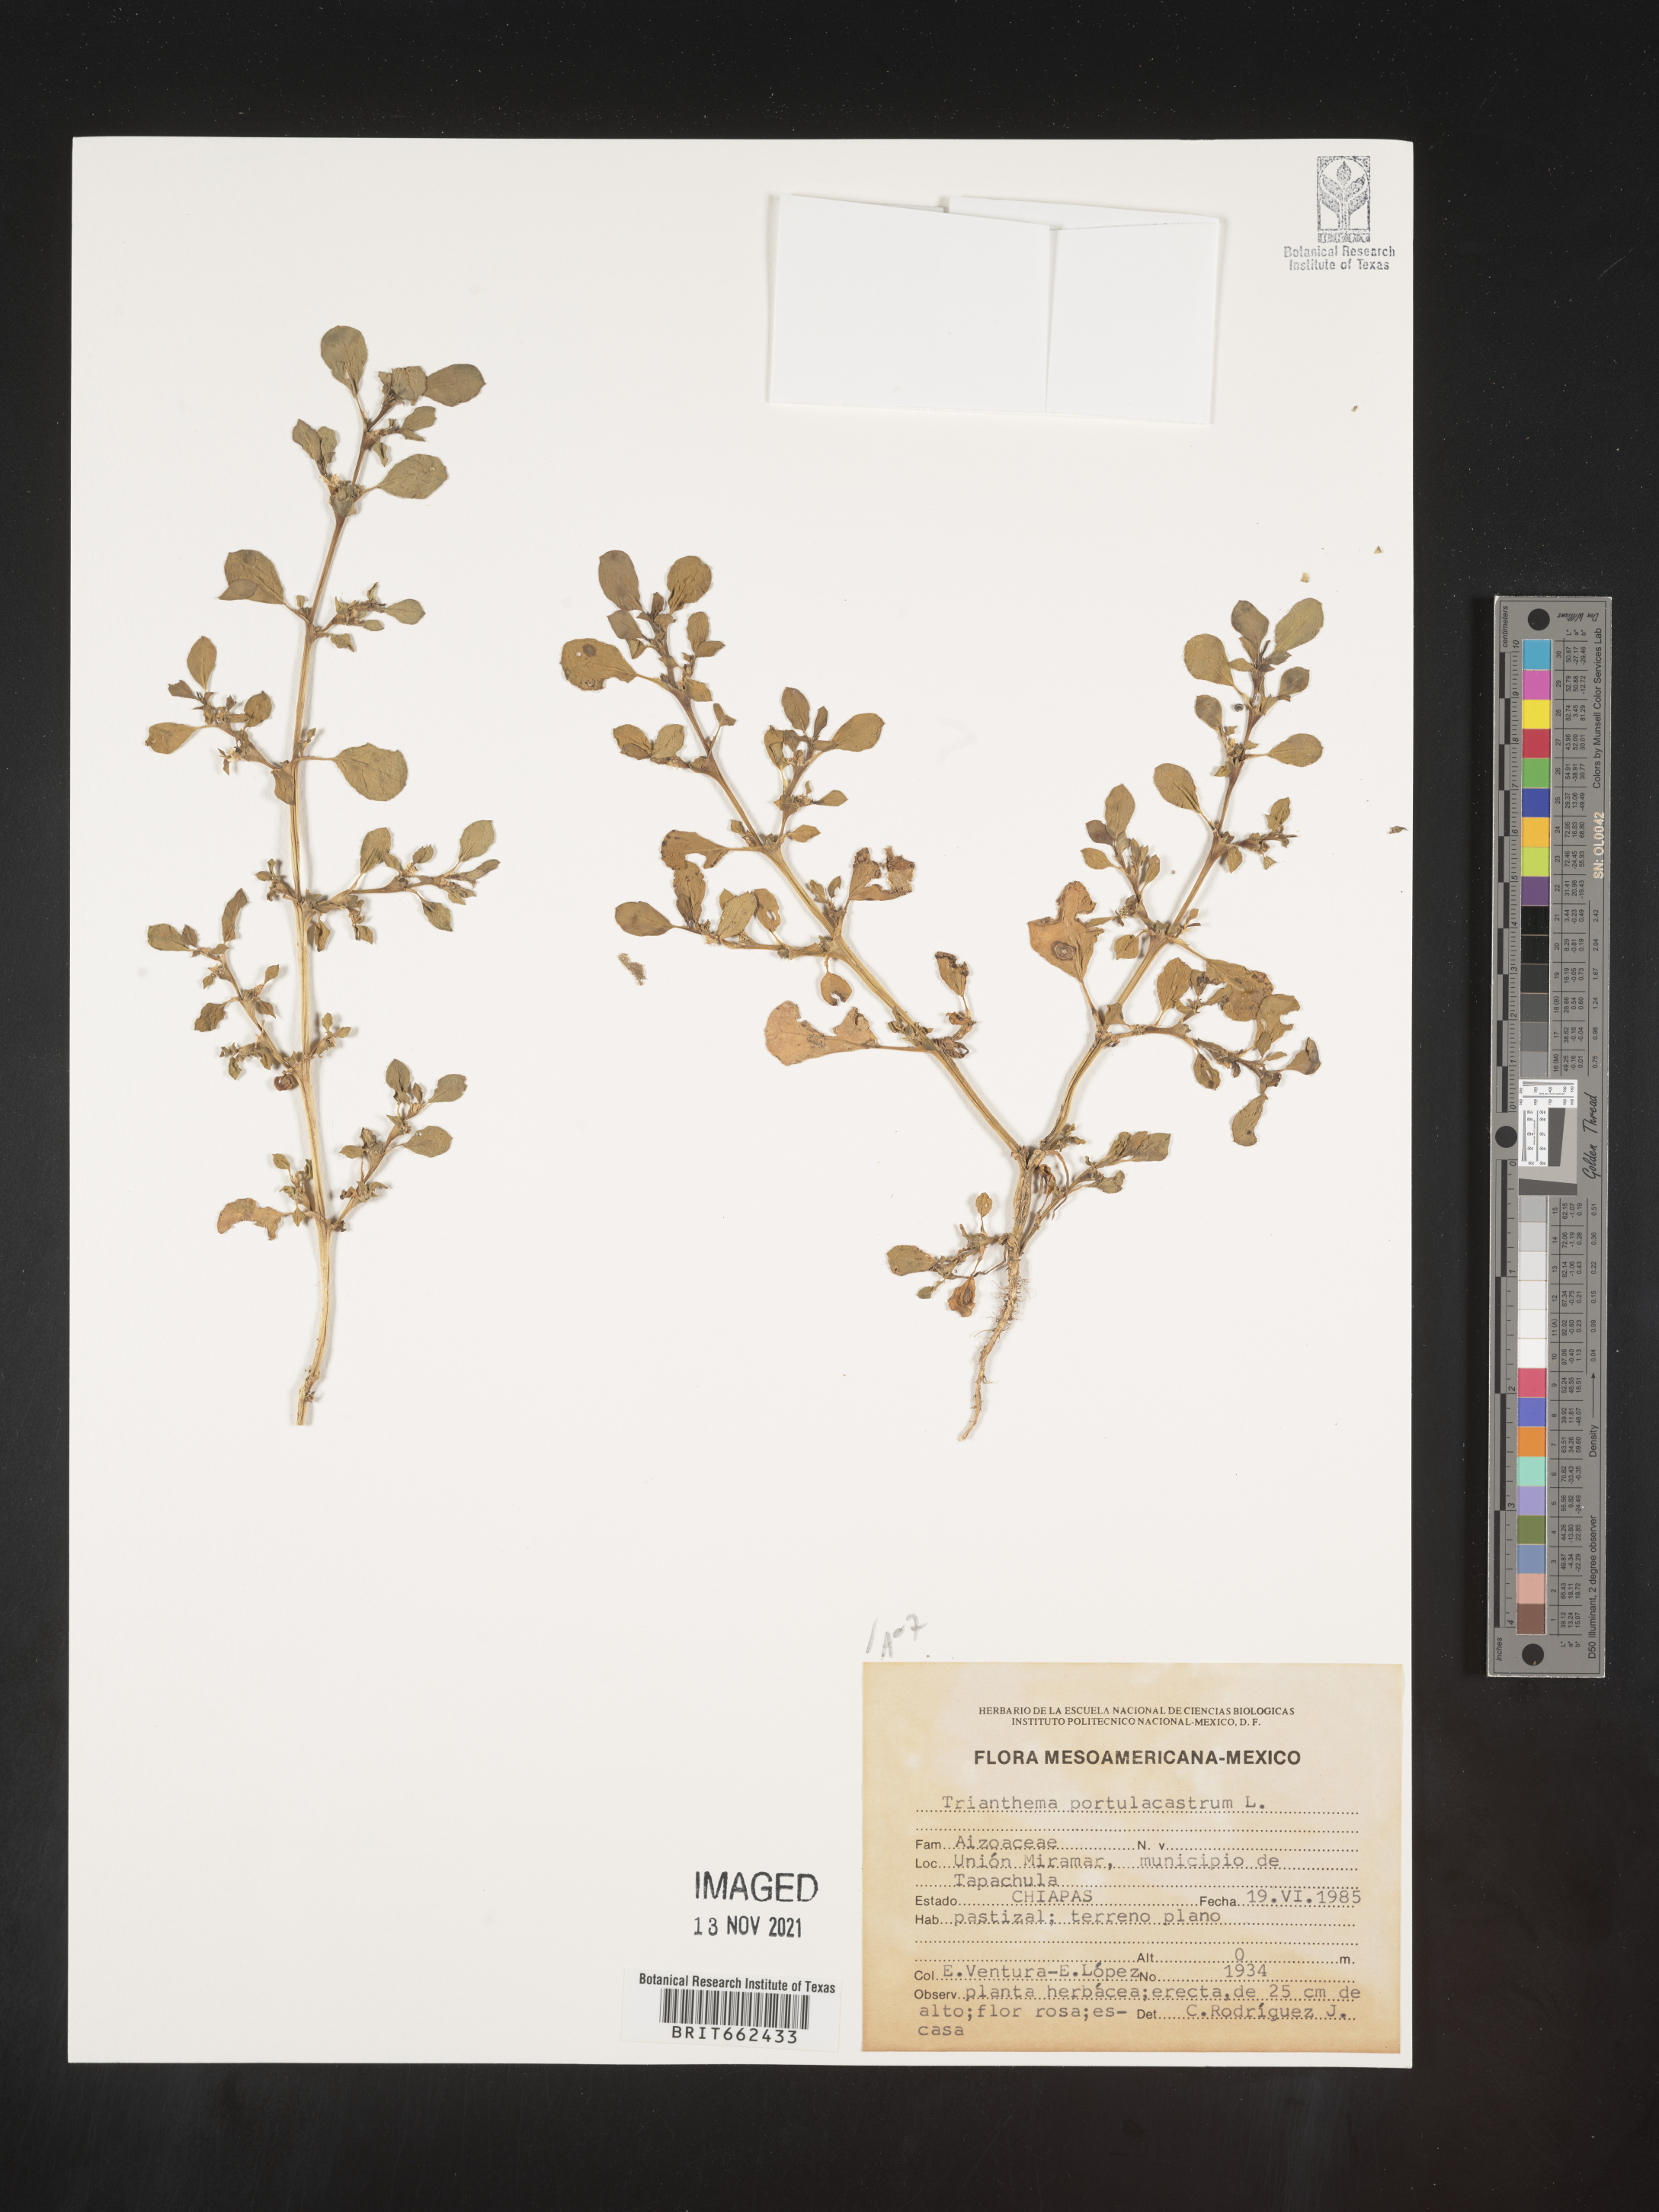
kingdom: Plantae
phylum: Tracheophyta
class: Magnoliopsida
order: Caryophyllales
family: Aizoaceae
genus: Trianthema
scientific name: Trianthema
